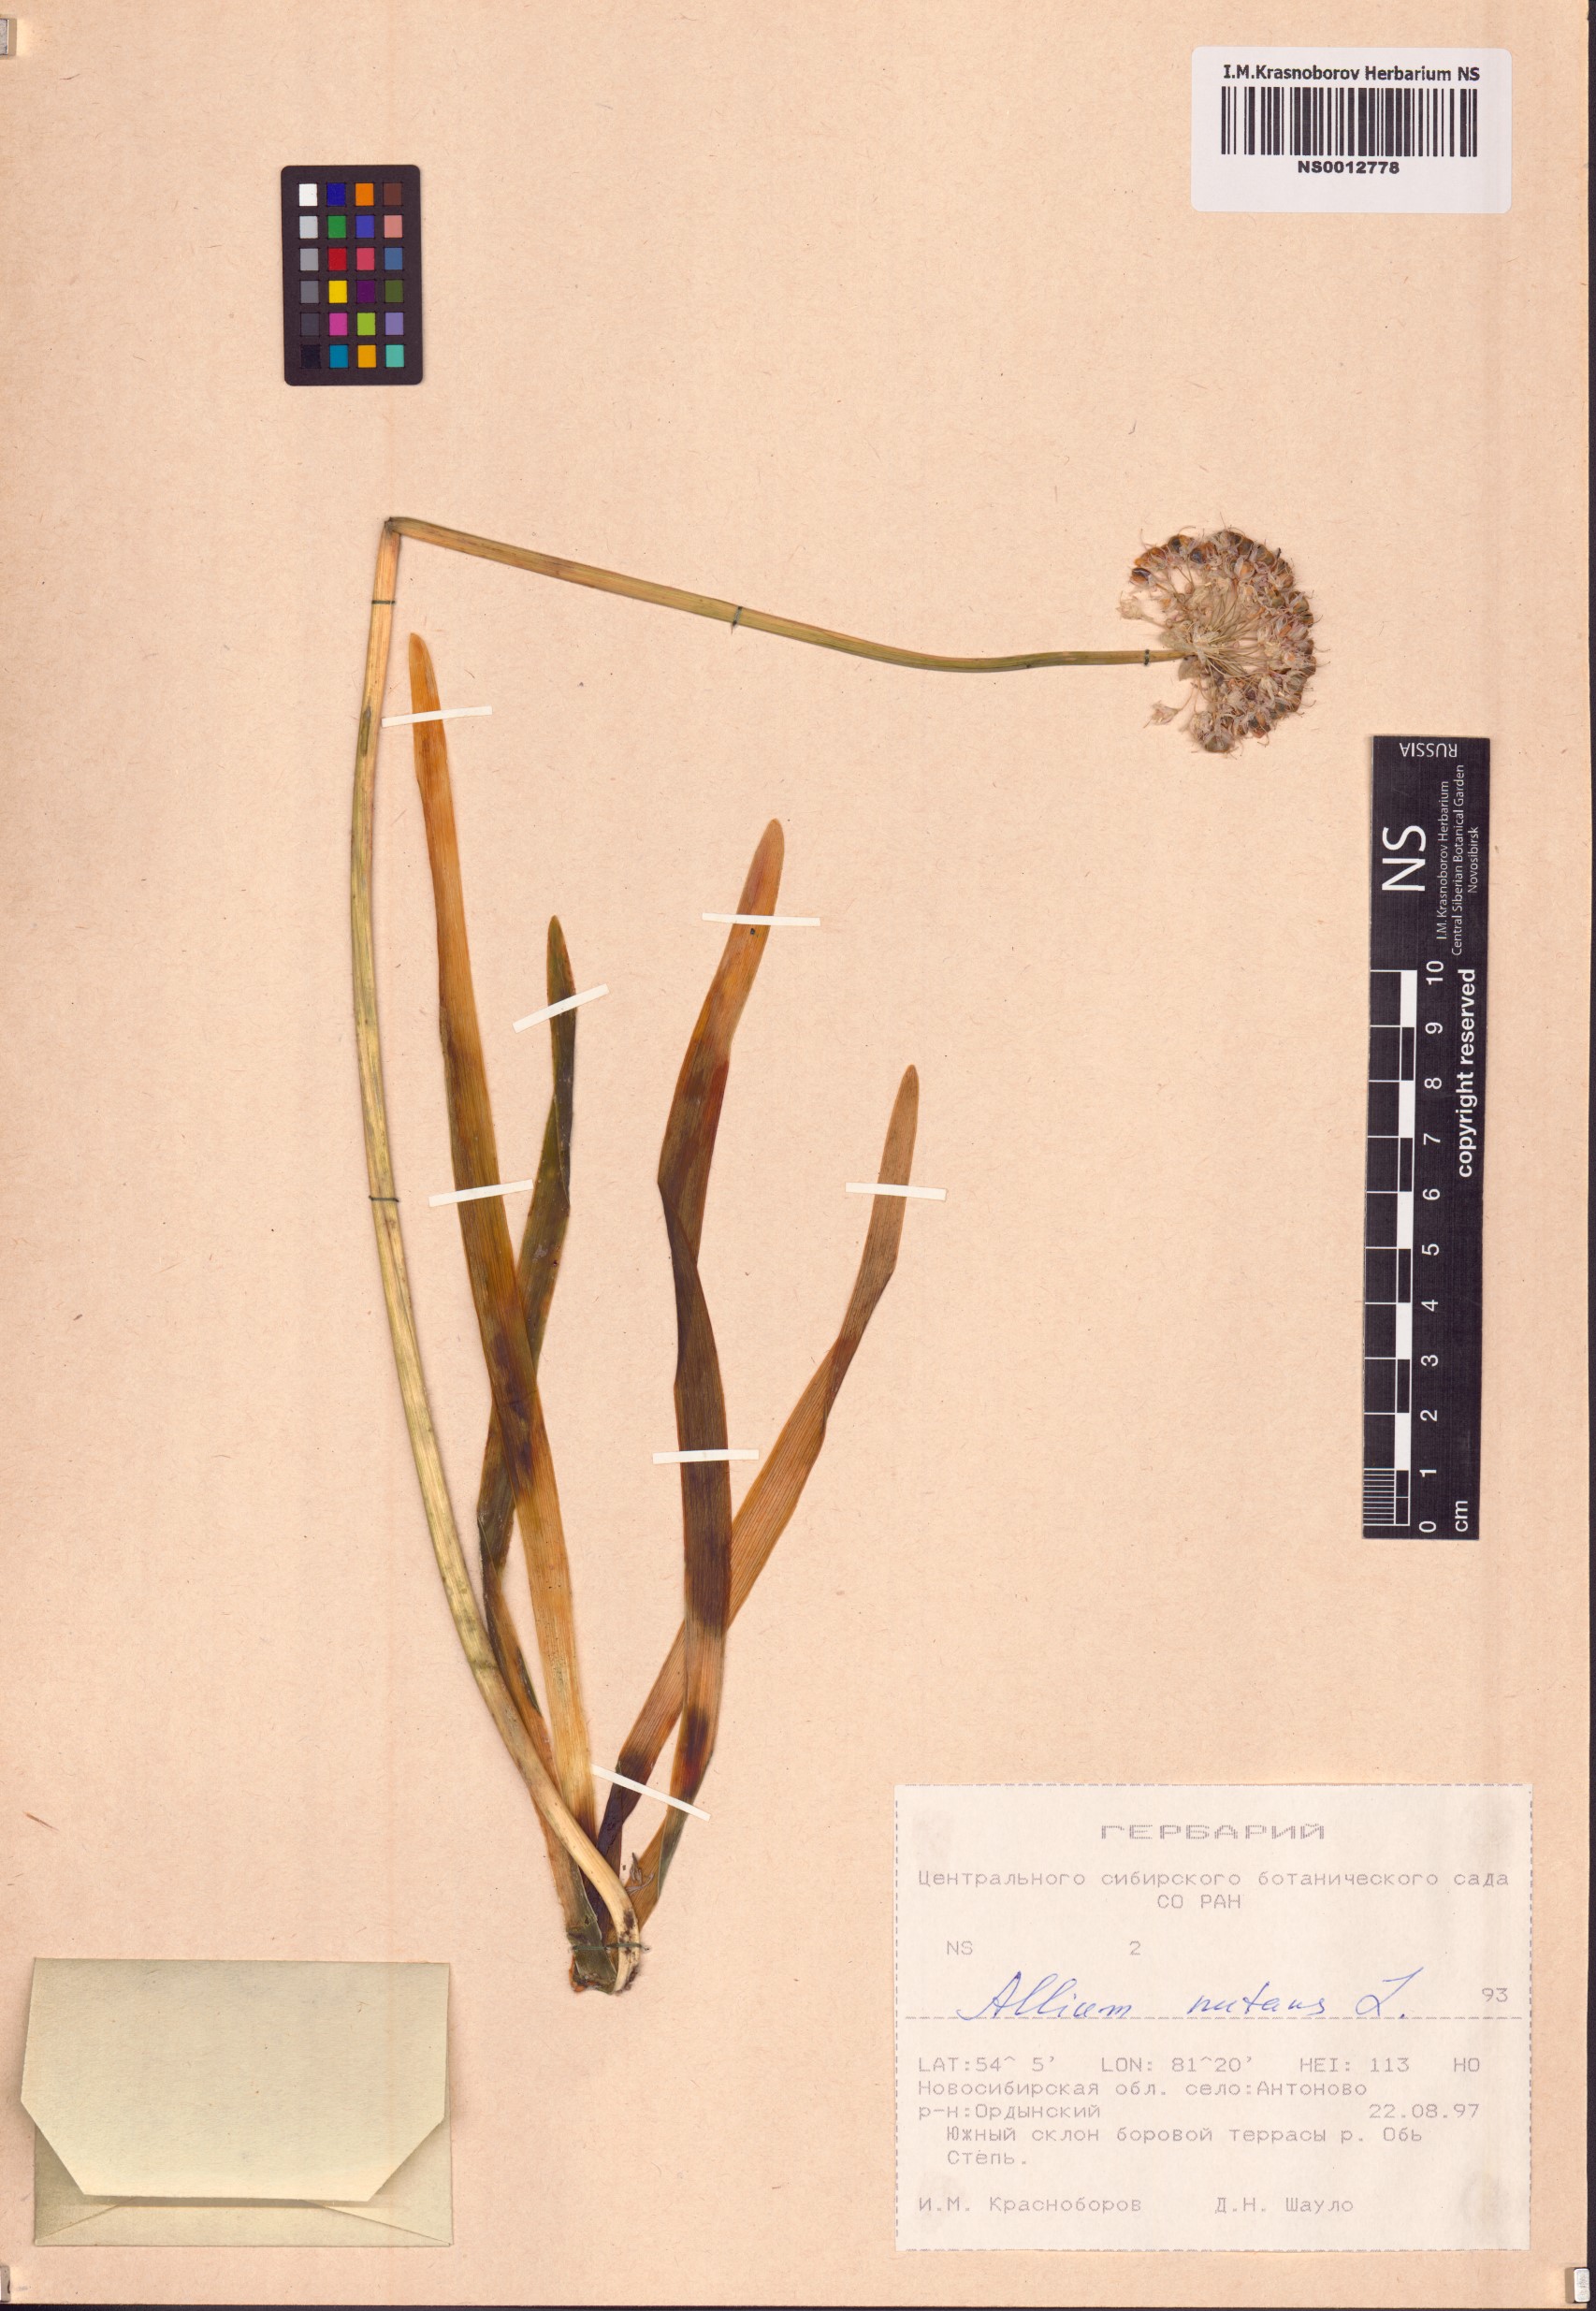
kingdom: Plantae
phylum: Tracheophyta
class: Liliopsida
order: Asparagales
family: Amaryllidaceae
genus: Allium
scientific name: Allium nutans
